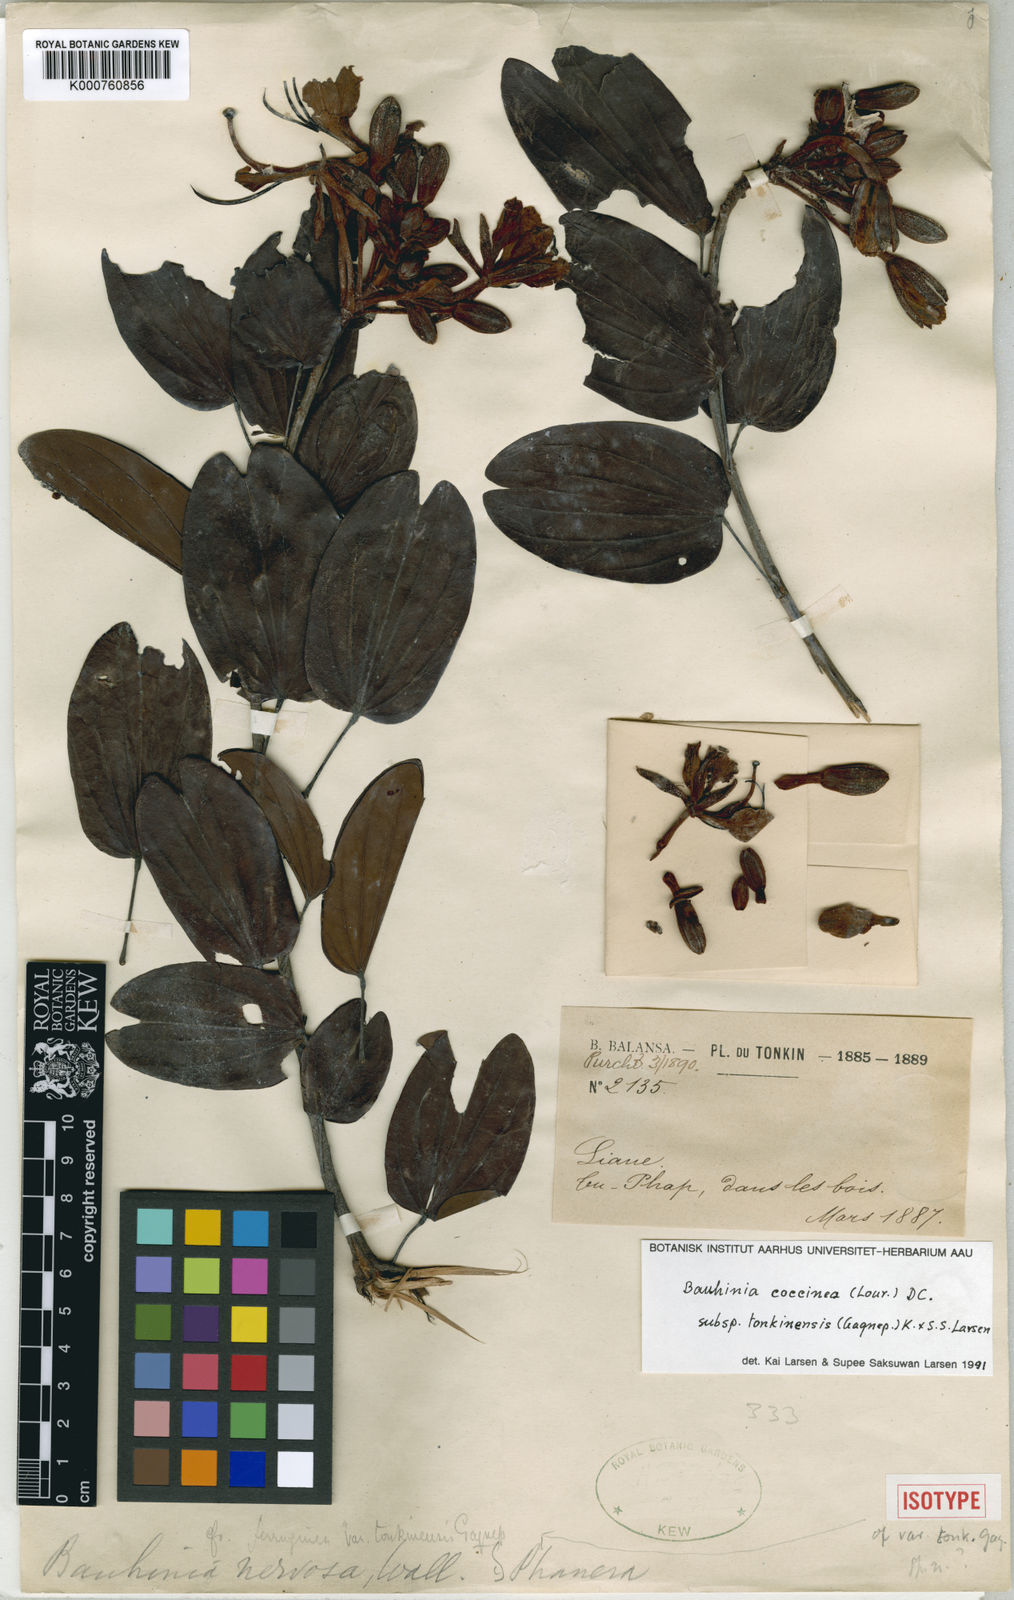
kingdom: Plantae
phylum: Tracheophyta
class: Magnoliopsida
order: Fabales
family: Fabaceae
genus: Phanera
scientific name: Phanera coccinea
